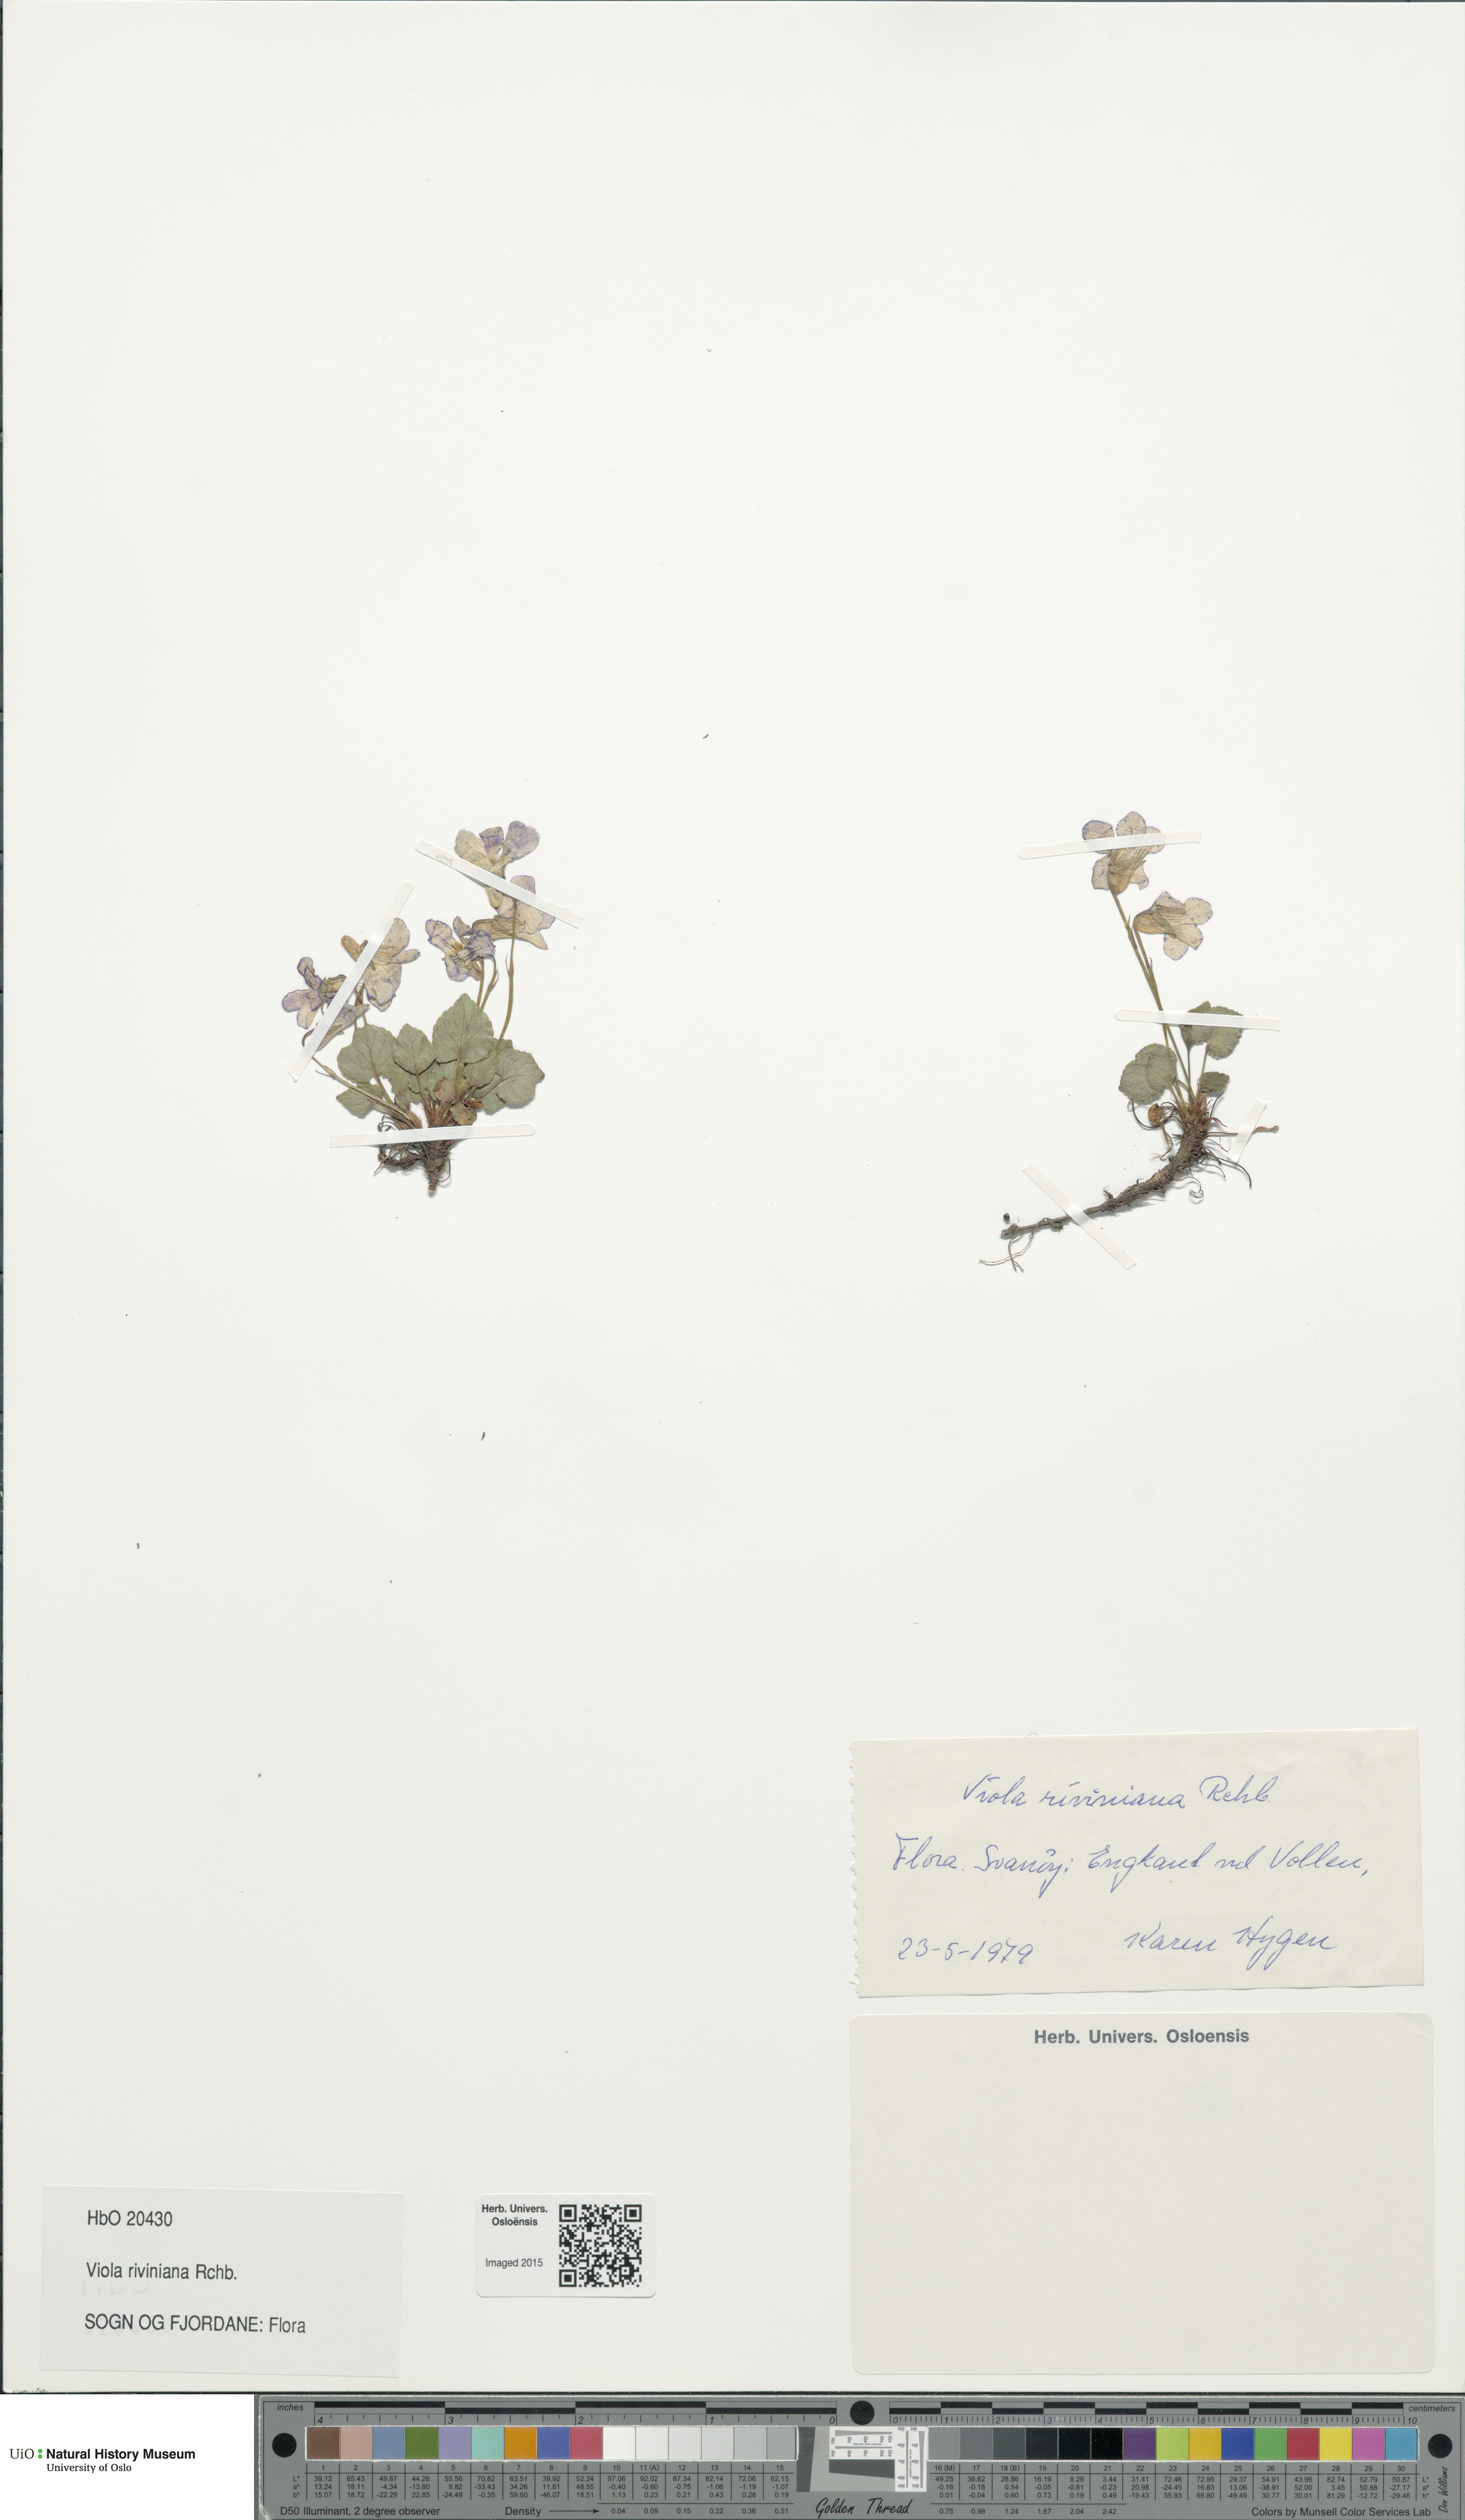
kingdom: Plantae
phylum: Tracheophyta
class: Magnoliopsida
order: Malpighiales
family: Violaceae
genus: Viola
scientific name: Viola riviniana
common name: Common dog-violet
